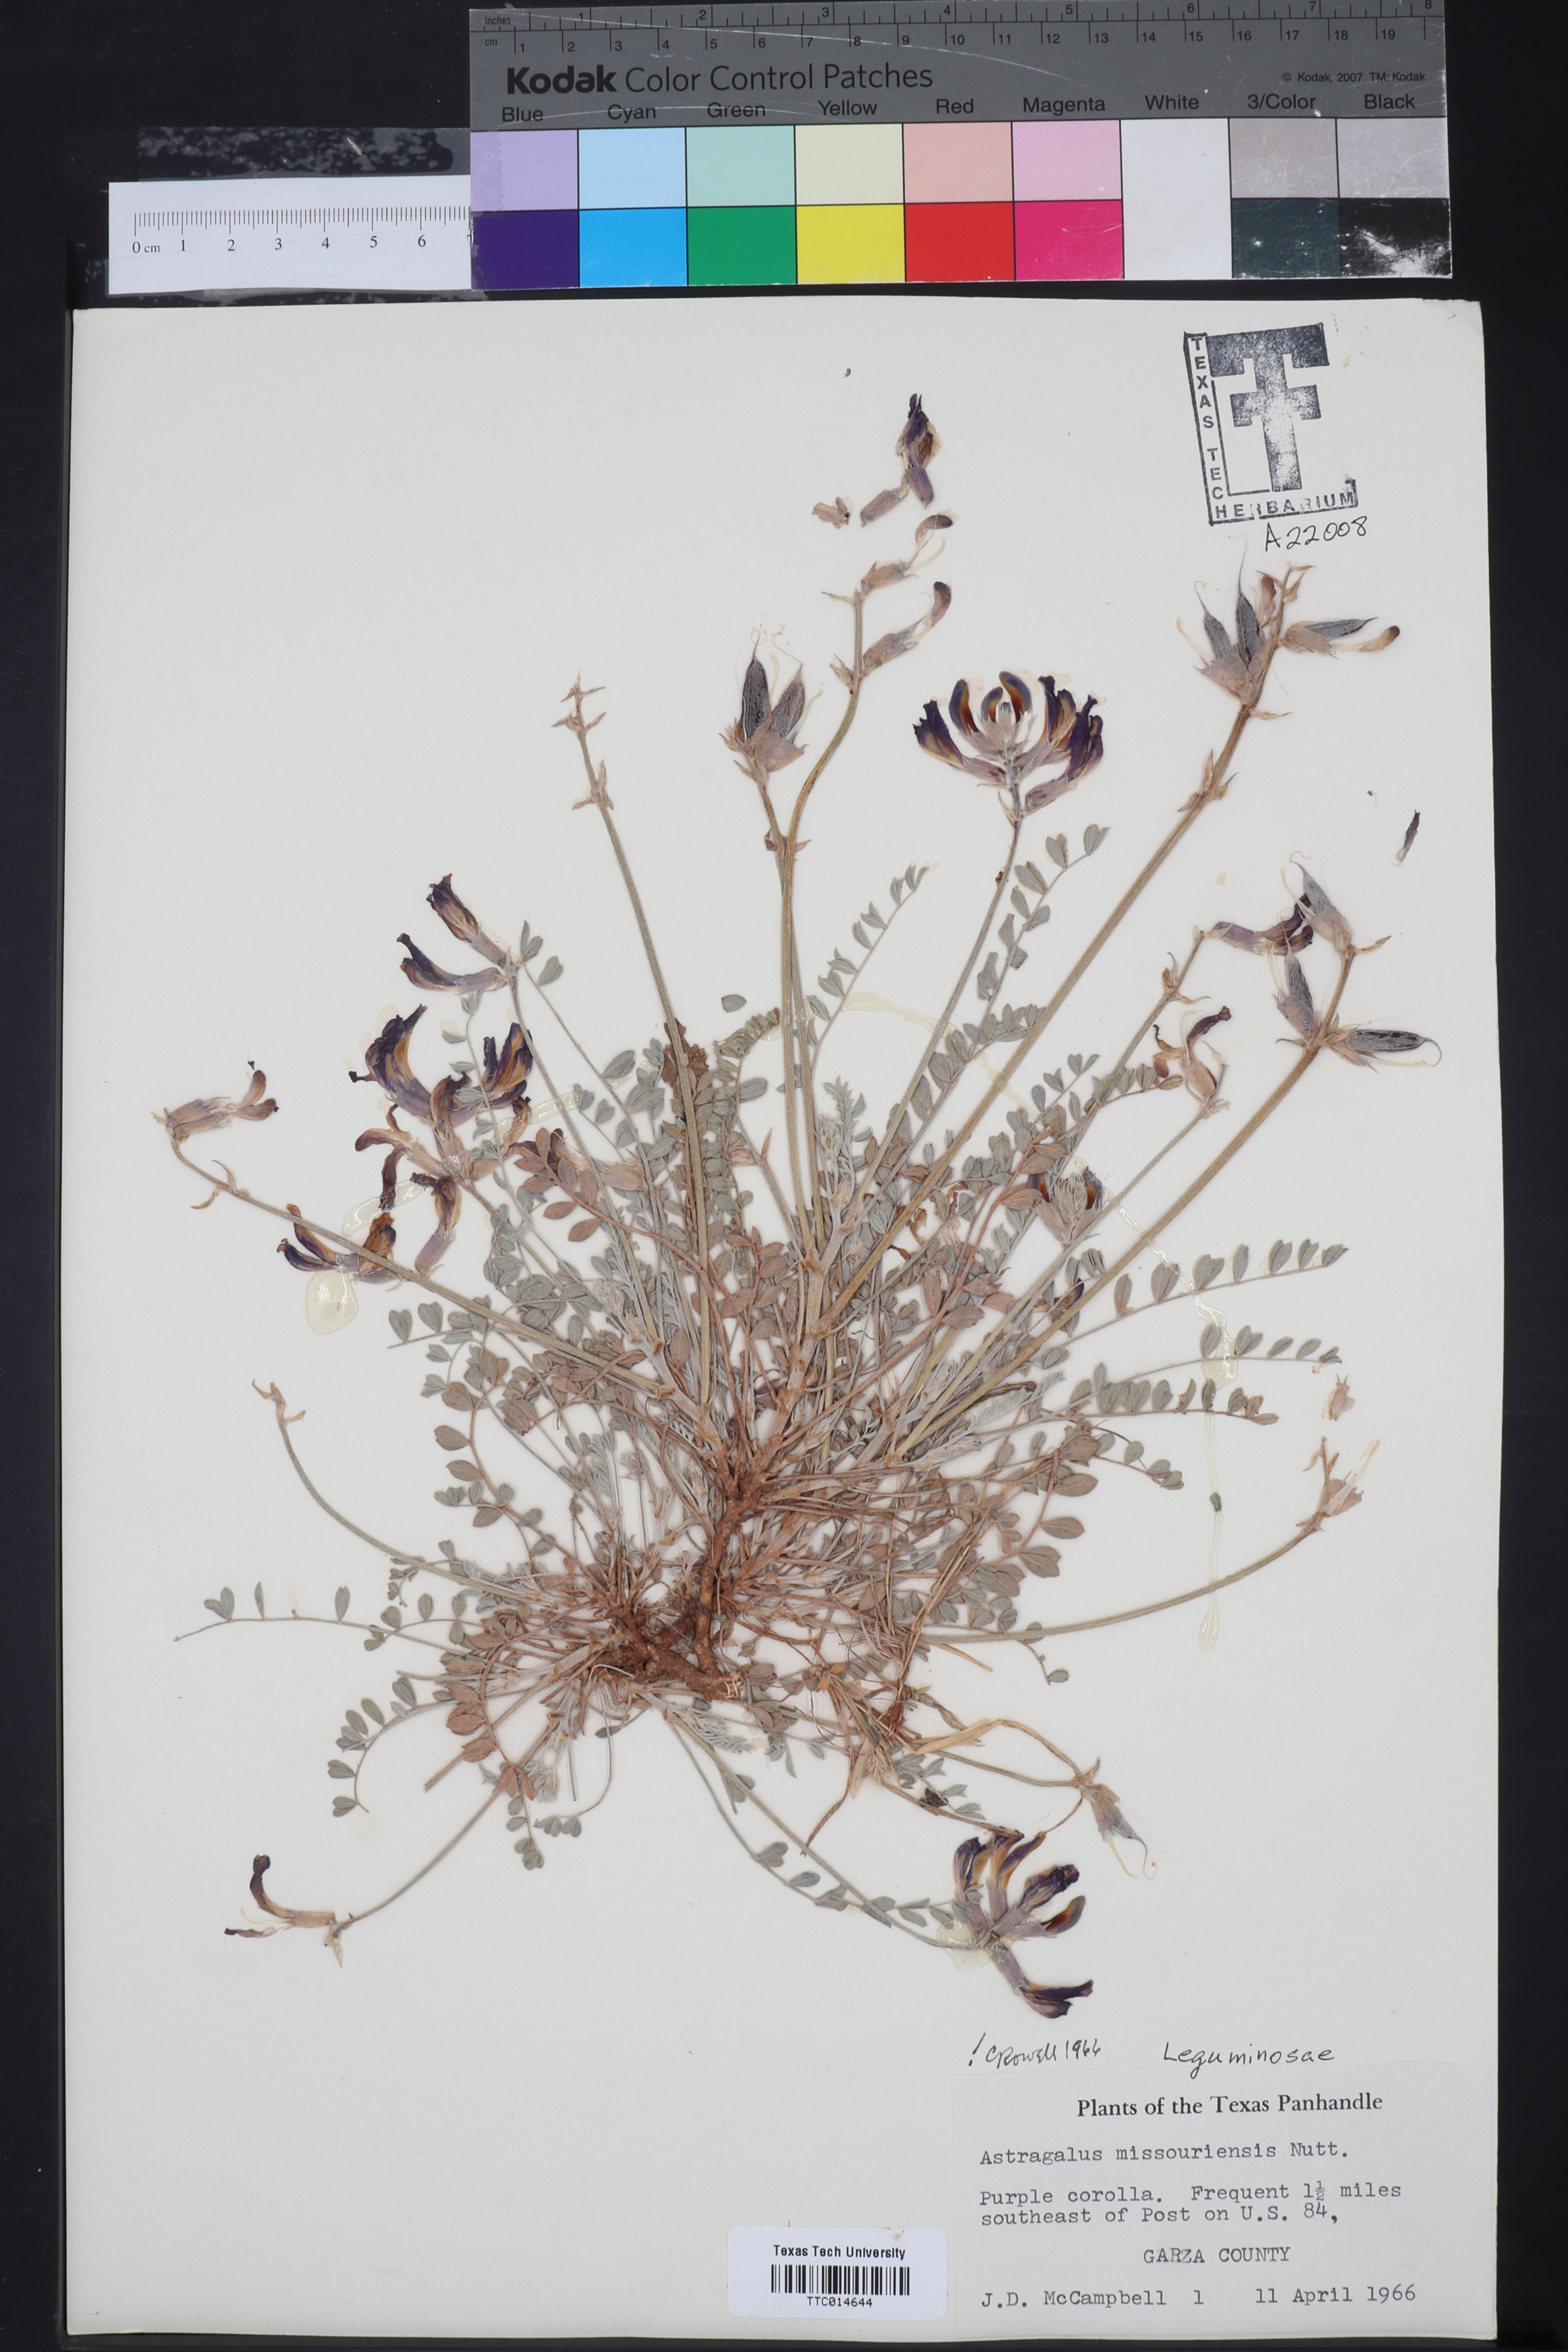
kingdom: Plantae
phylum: Tracheophyta
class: Magnoliopsida
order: Fabales
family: Fabaceae
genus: Astragalus
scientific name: Astragalus missouriensis
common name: Missouri milk-vetch
